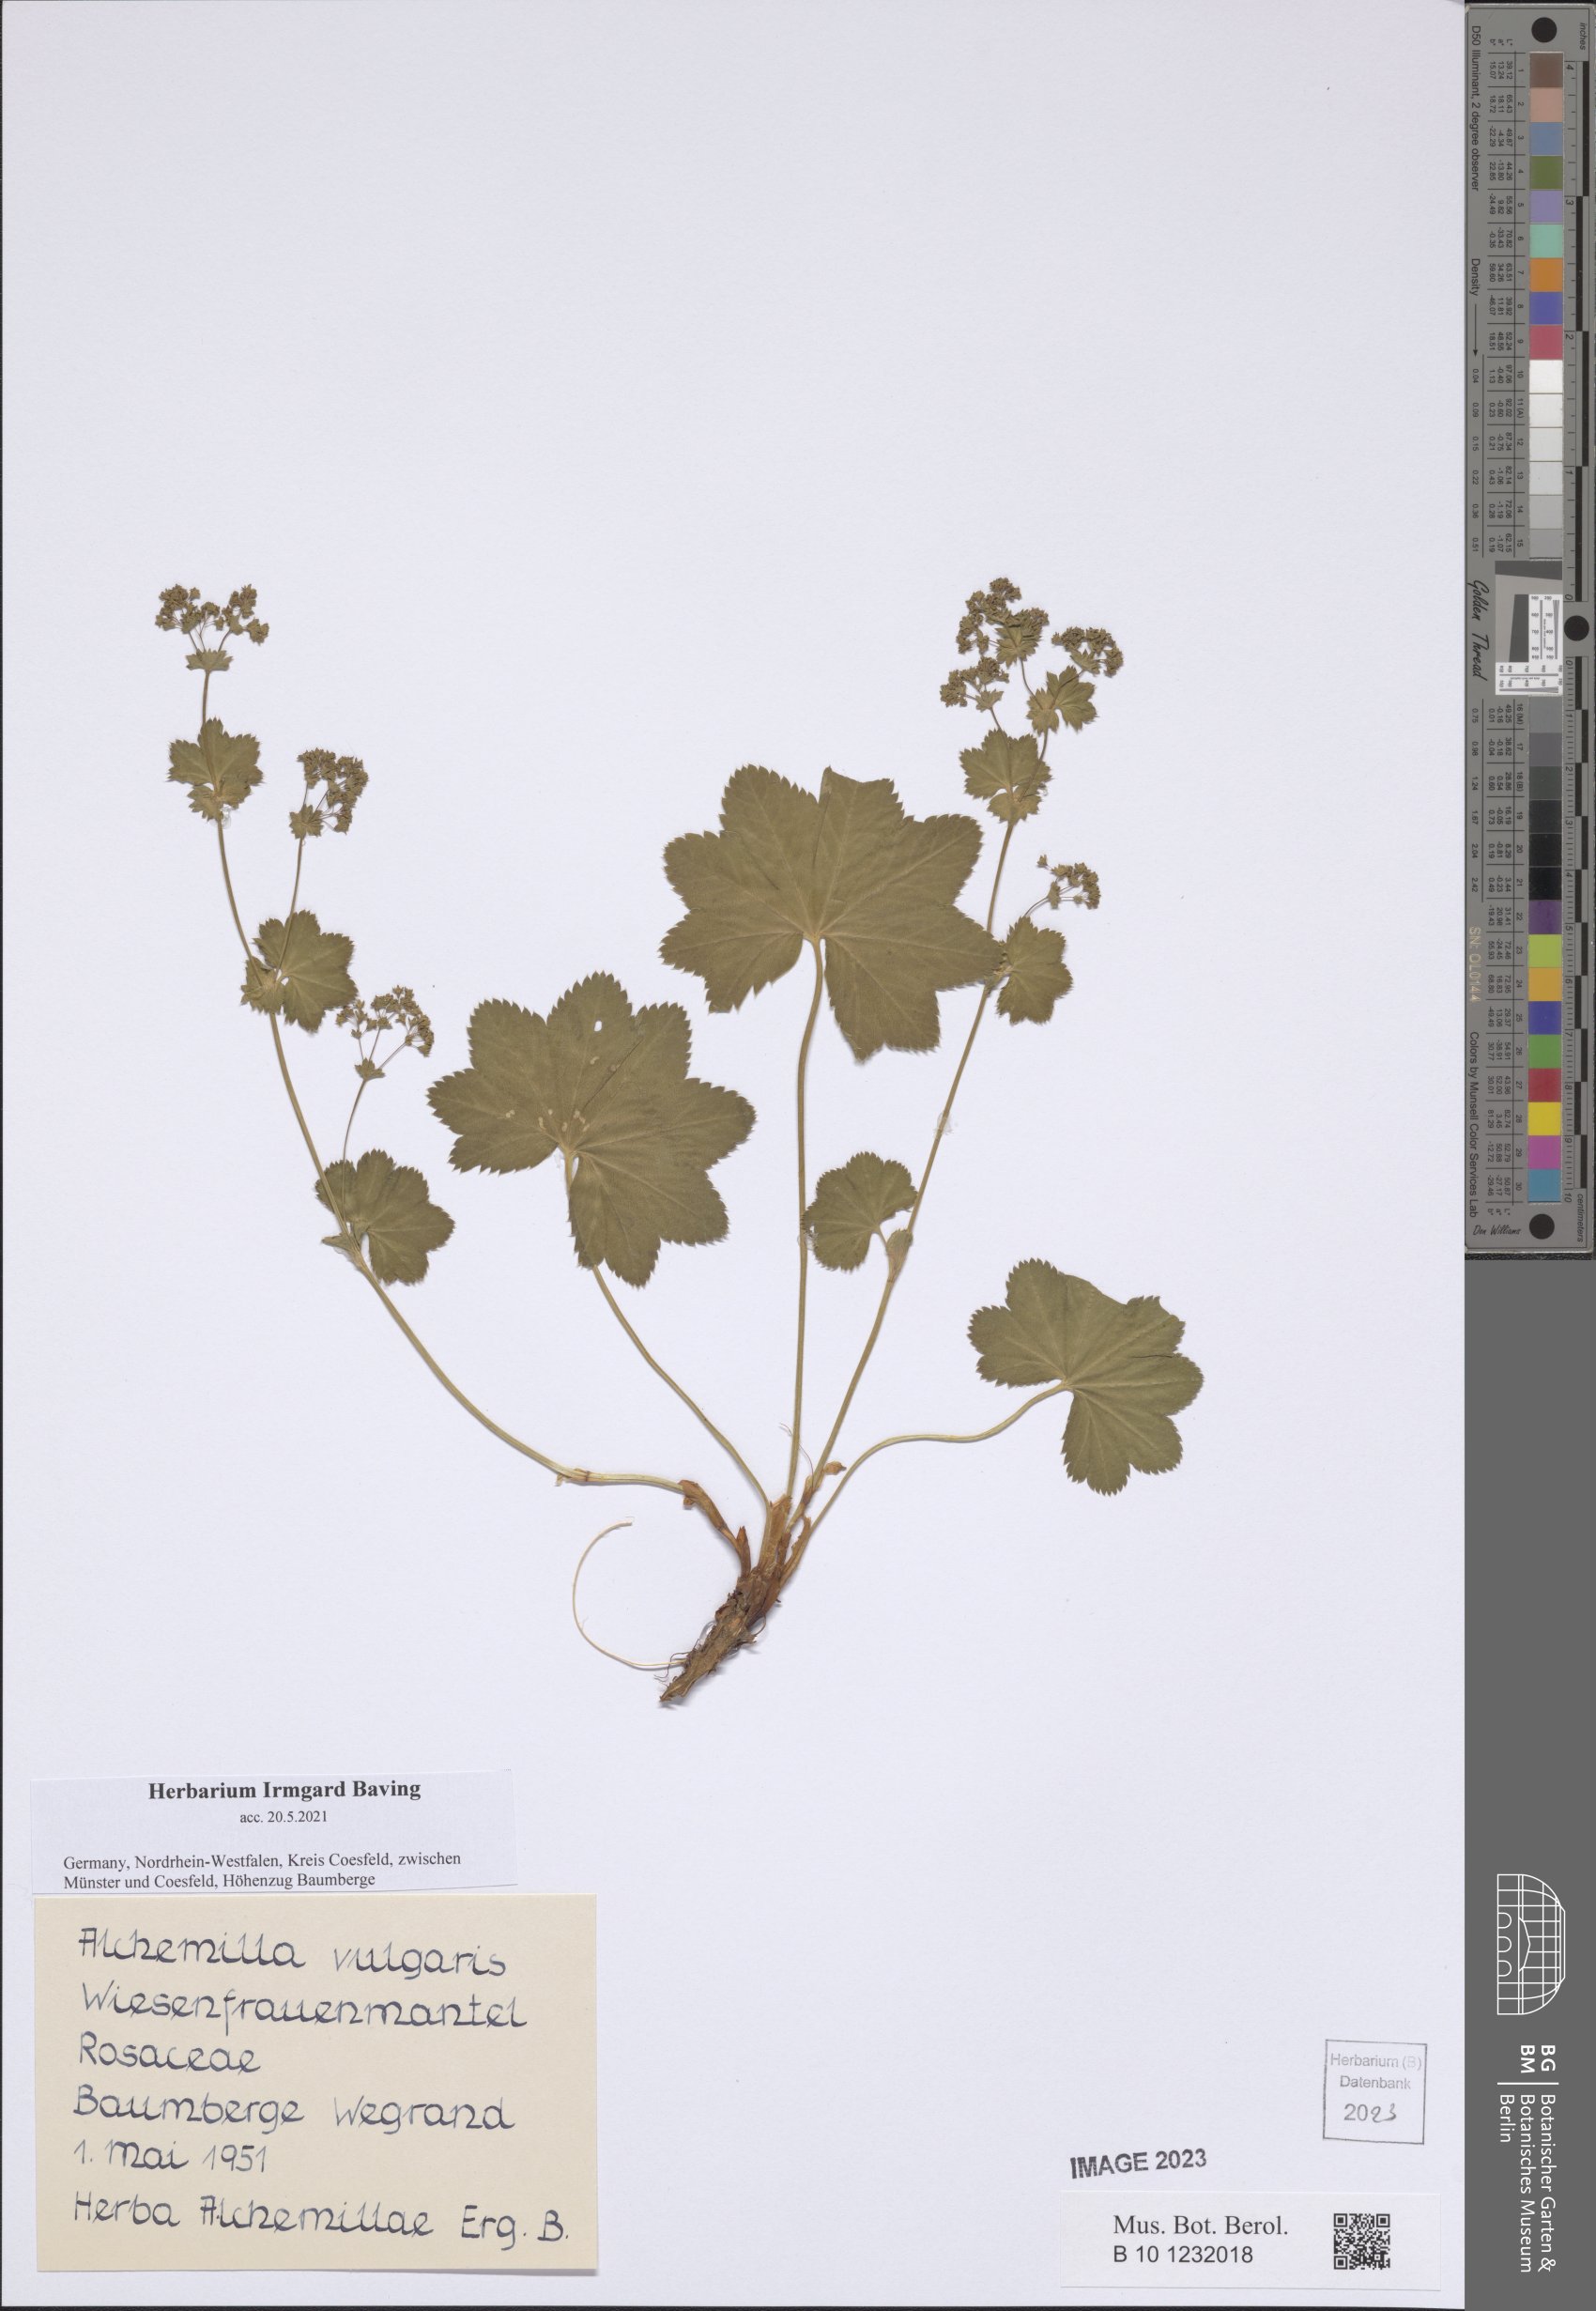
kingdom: Plantae
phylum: Tracheophyta
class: Magnoliopsida
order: Rosales
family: Rosaceae
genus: Alchemilla
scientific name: Alchemilla vulgaris
